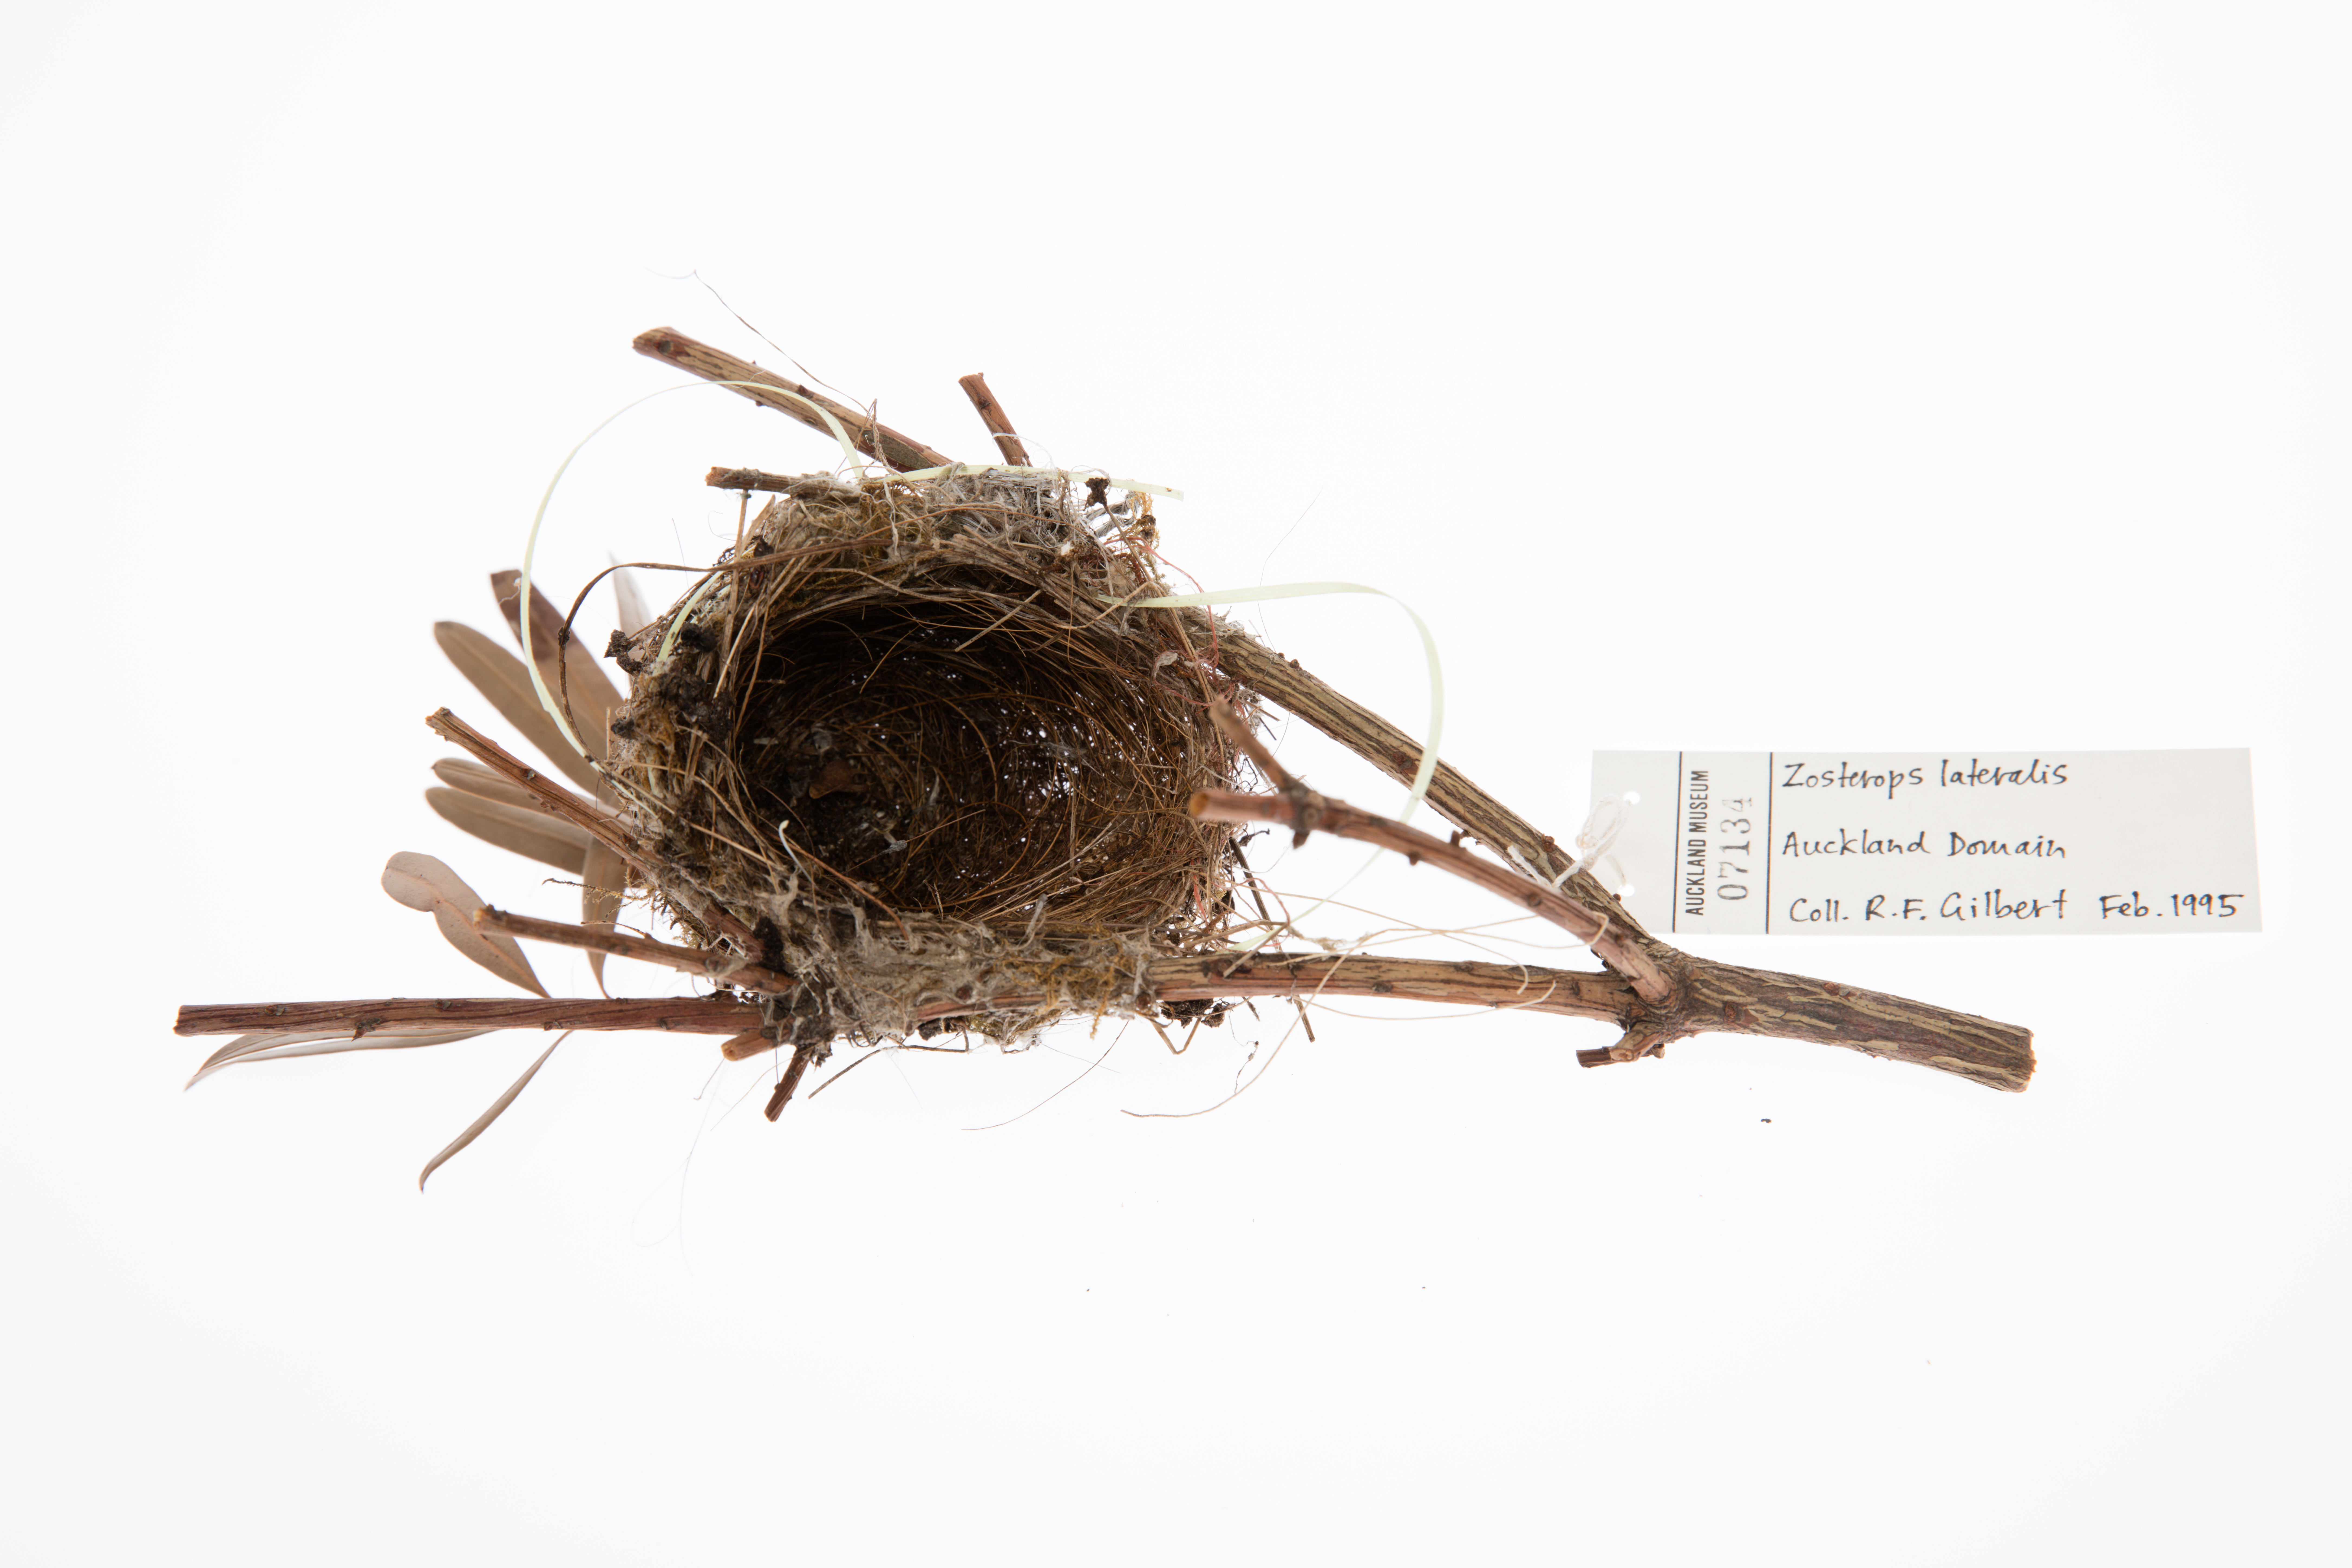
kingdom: Animalia
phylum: Chordata
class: Aves
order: Passeriformes
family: Zosteropidae
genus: Zosterops
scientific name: Zosterops lateralis
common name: Silvereye
